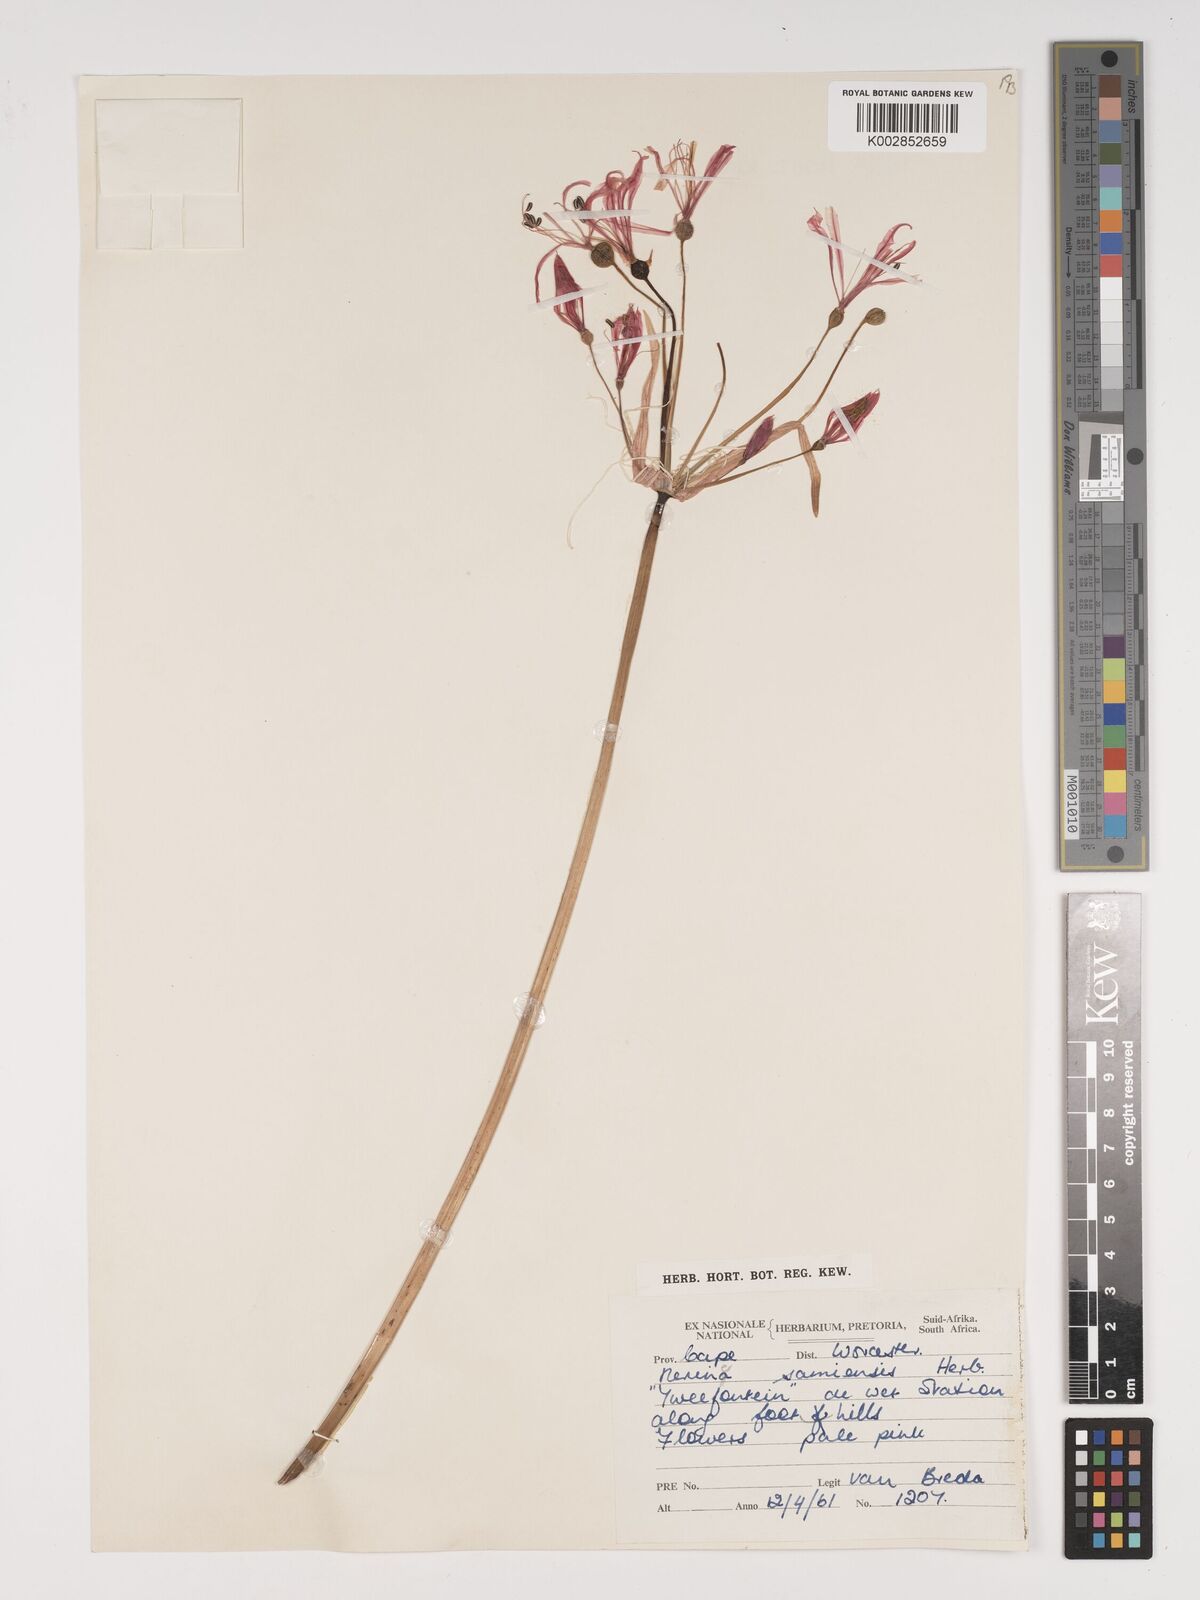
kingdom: Plantae
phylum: Tracheophyta
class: Liliopsida
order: Asparagales
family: Amaryllidaceae
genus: Nerine
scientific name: Nerine humilis
